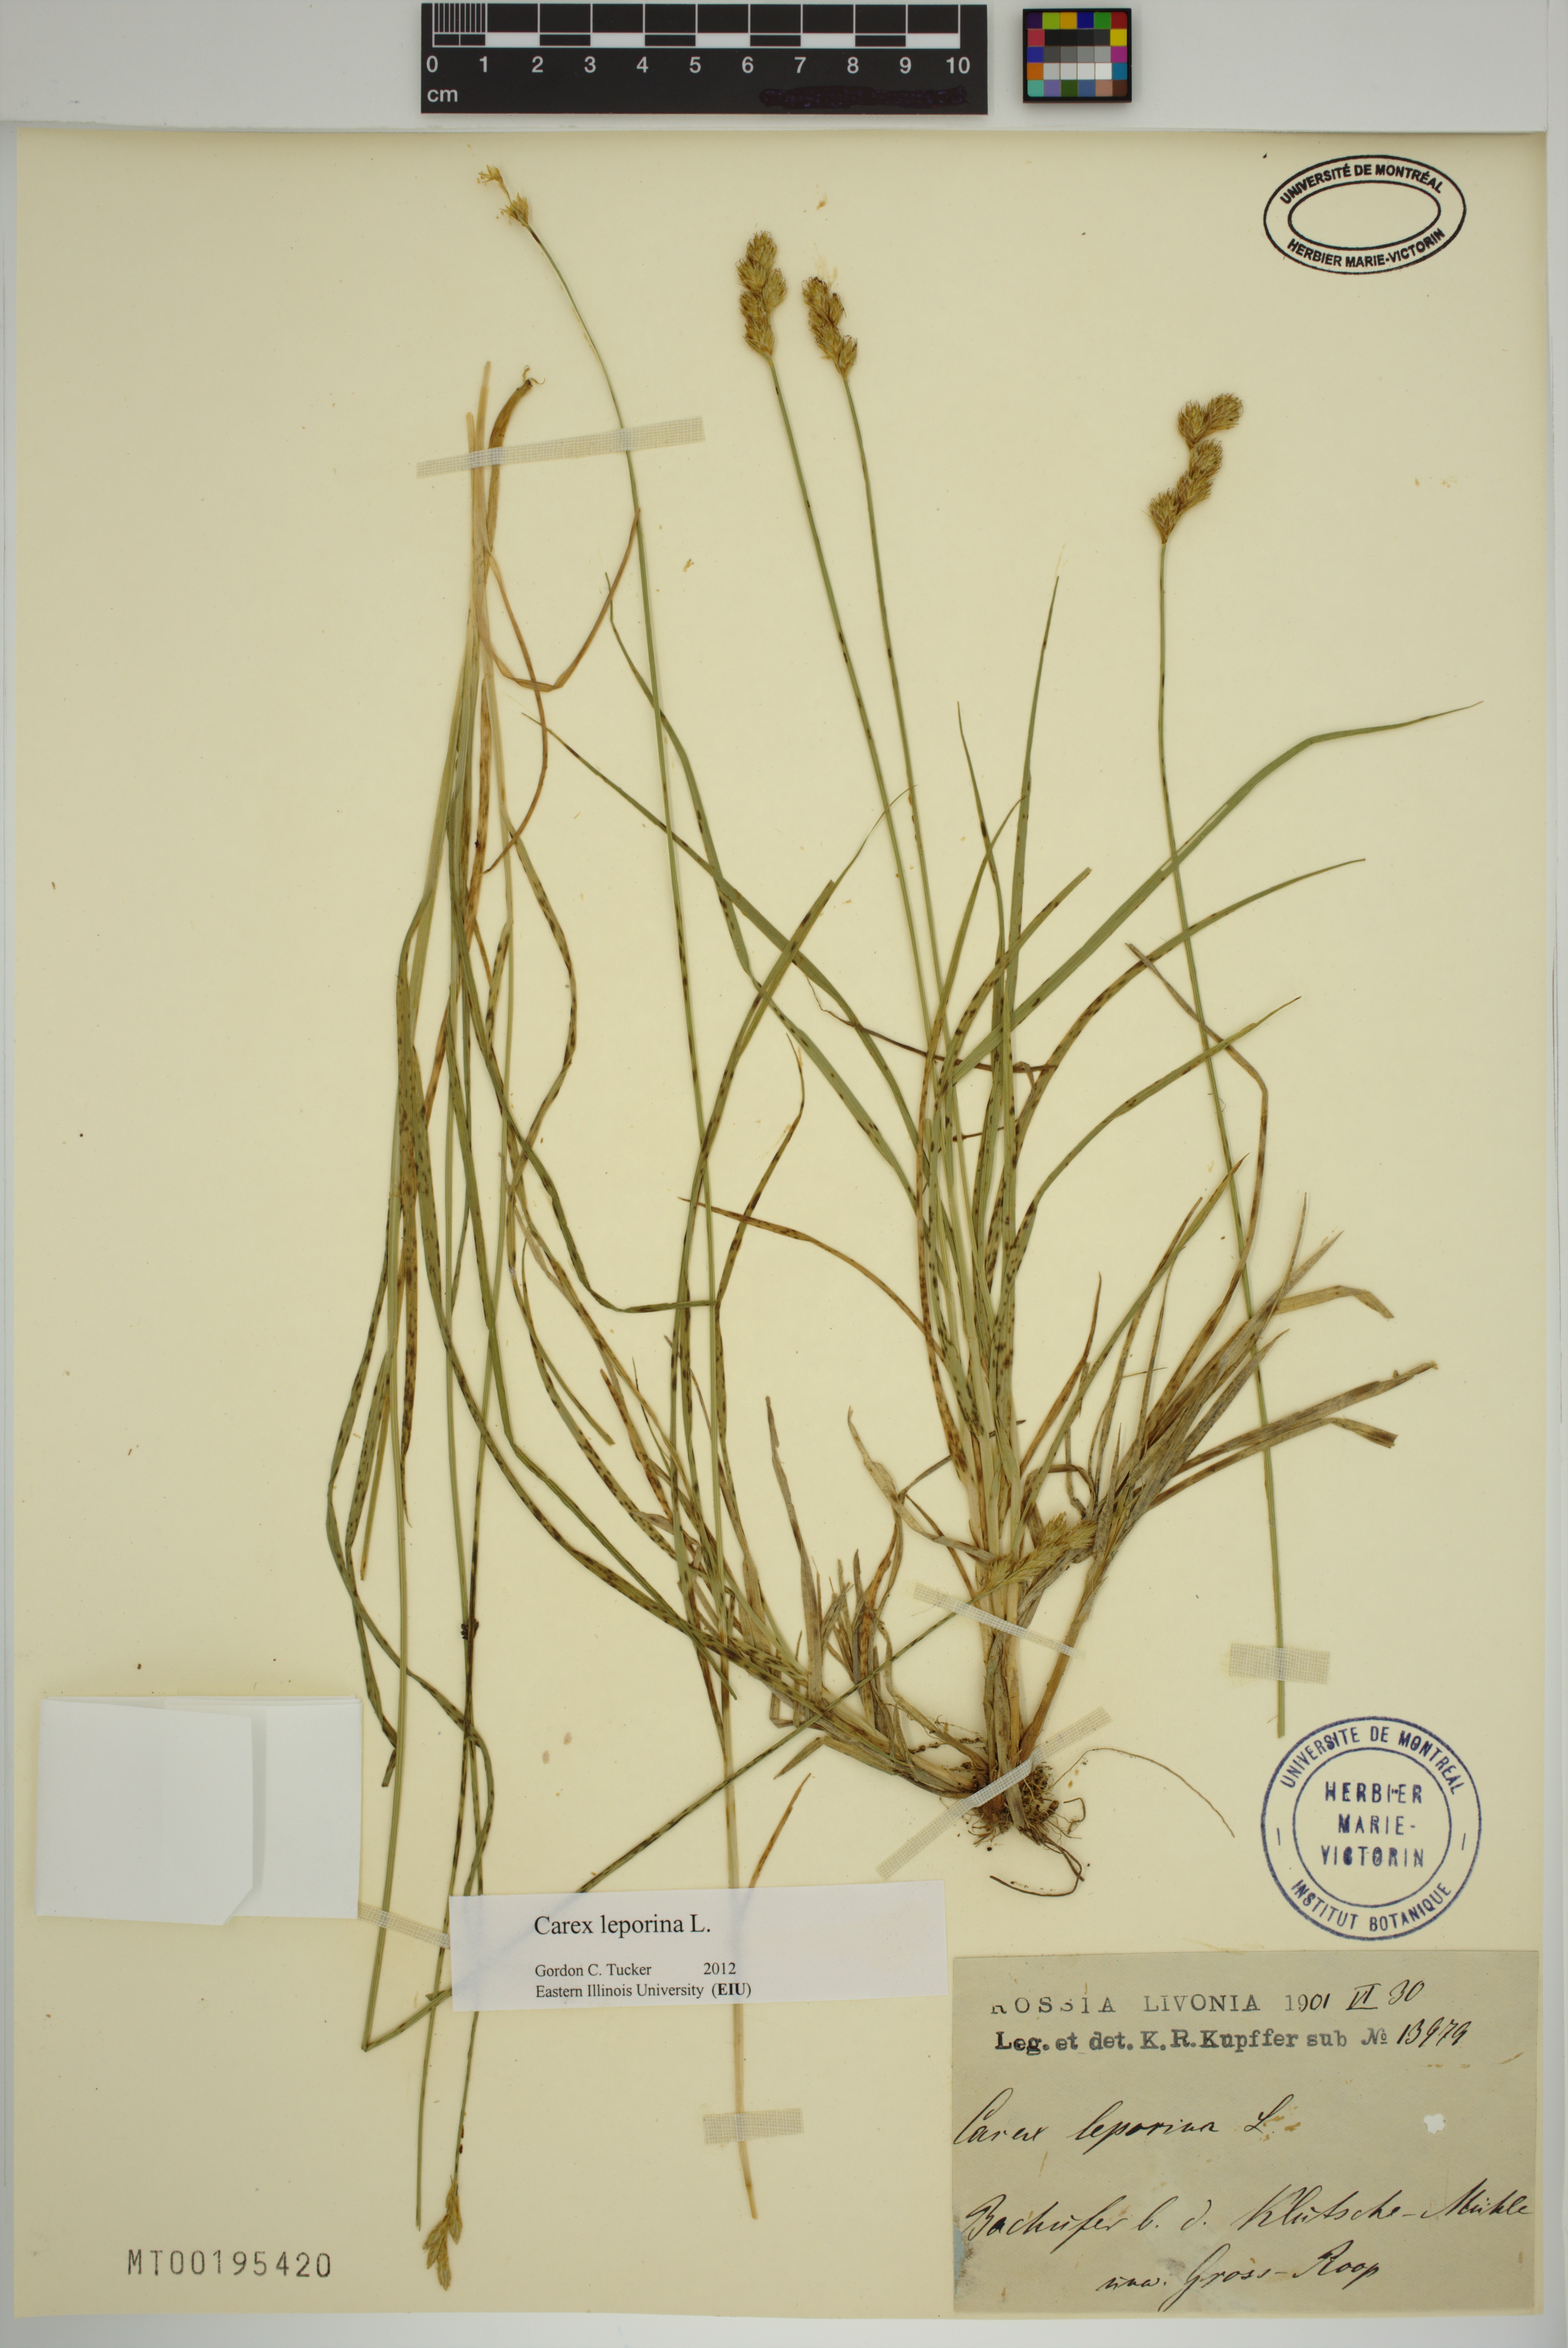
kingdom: Plantae
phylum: Tracheophyta
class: Liliopsida
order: Poales
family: Cyperaceae
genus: Carex
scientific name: Carex leporina
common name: Oval sedge
